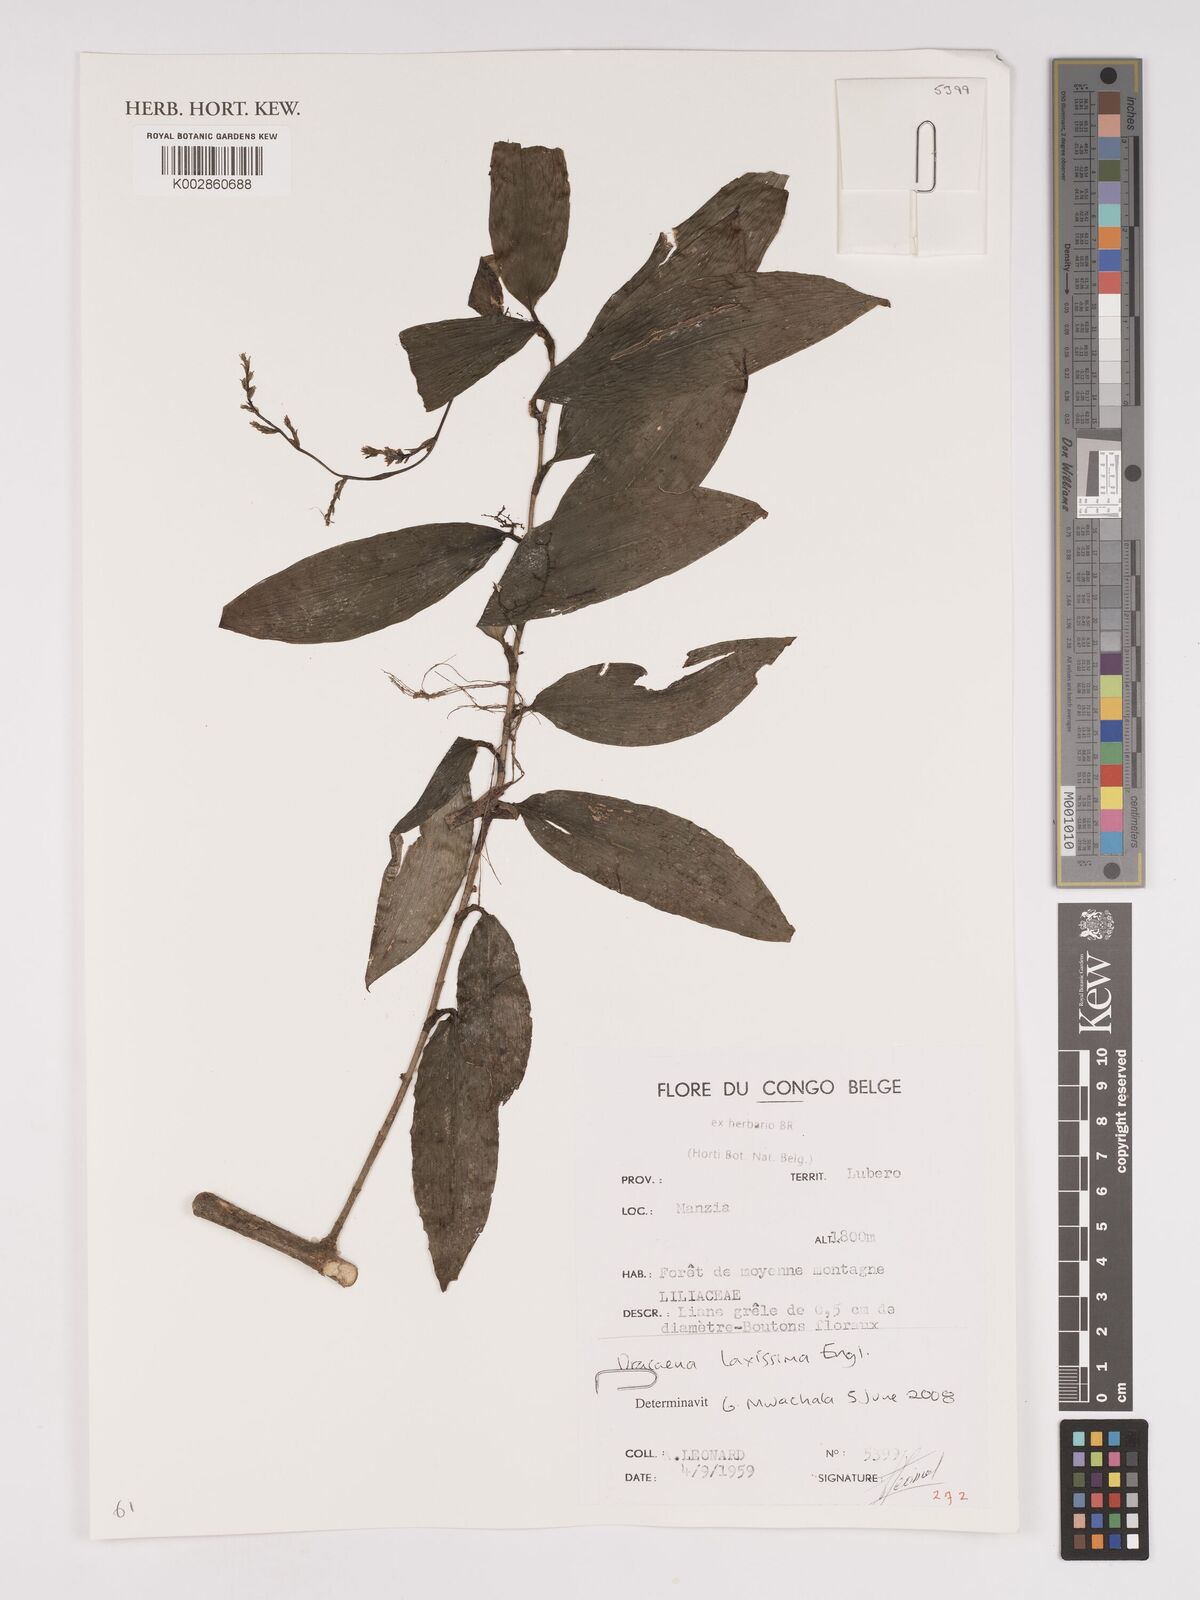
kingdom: Plantae
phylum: Tracheophyta
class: Liliopsida
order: Asparagales
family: Asparagaceae
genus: Dracaena
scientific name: Dracaena laxissima
